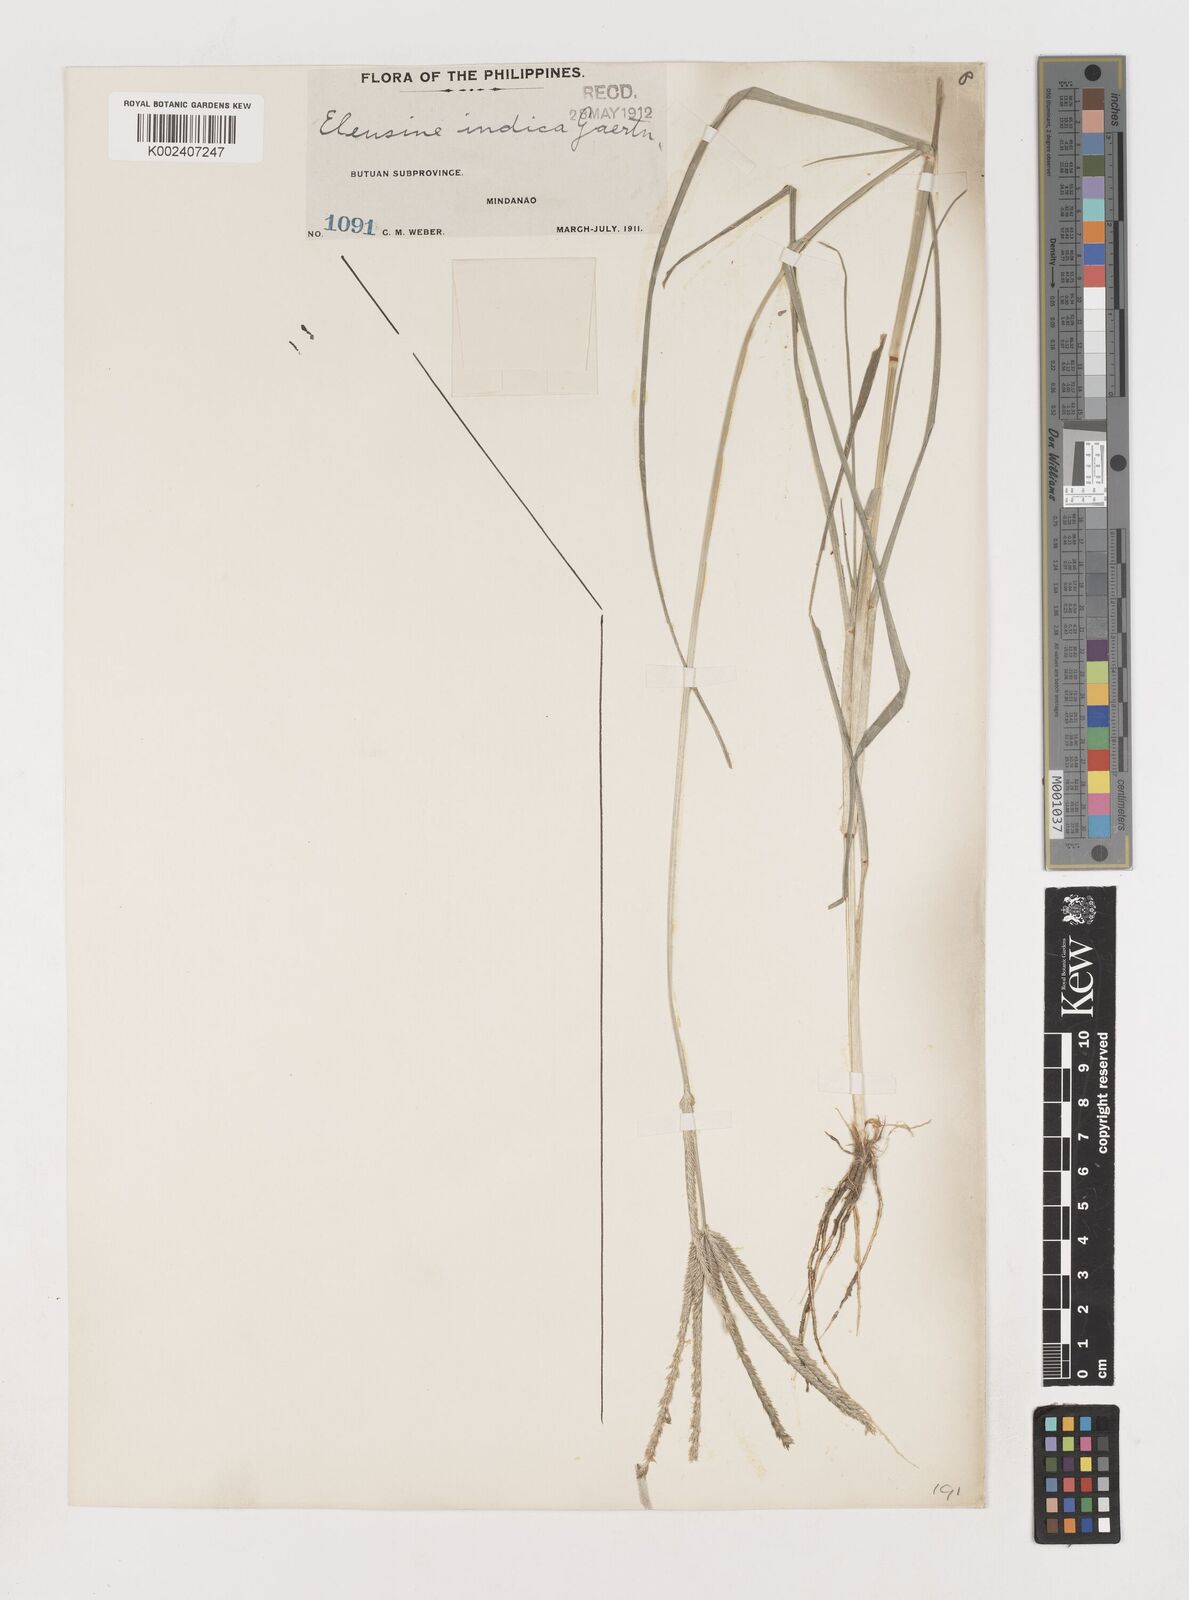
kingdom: Plantae
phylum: Tracheophyta
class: Liliopsida
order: Poales
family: Poaceae
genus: Eleusine
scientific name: Eleusine indica
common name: Yard-grass
